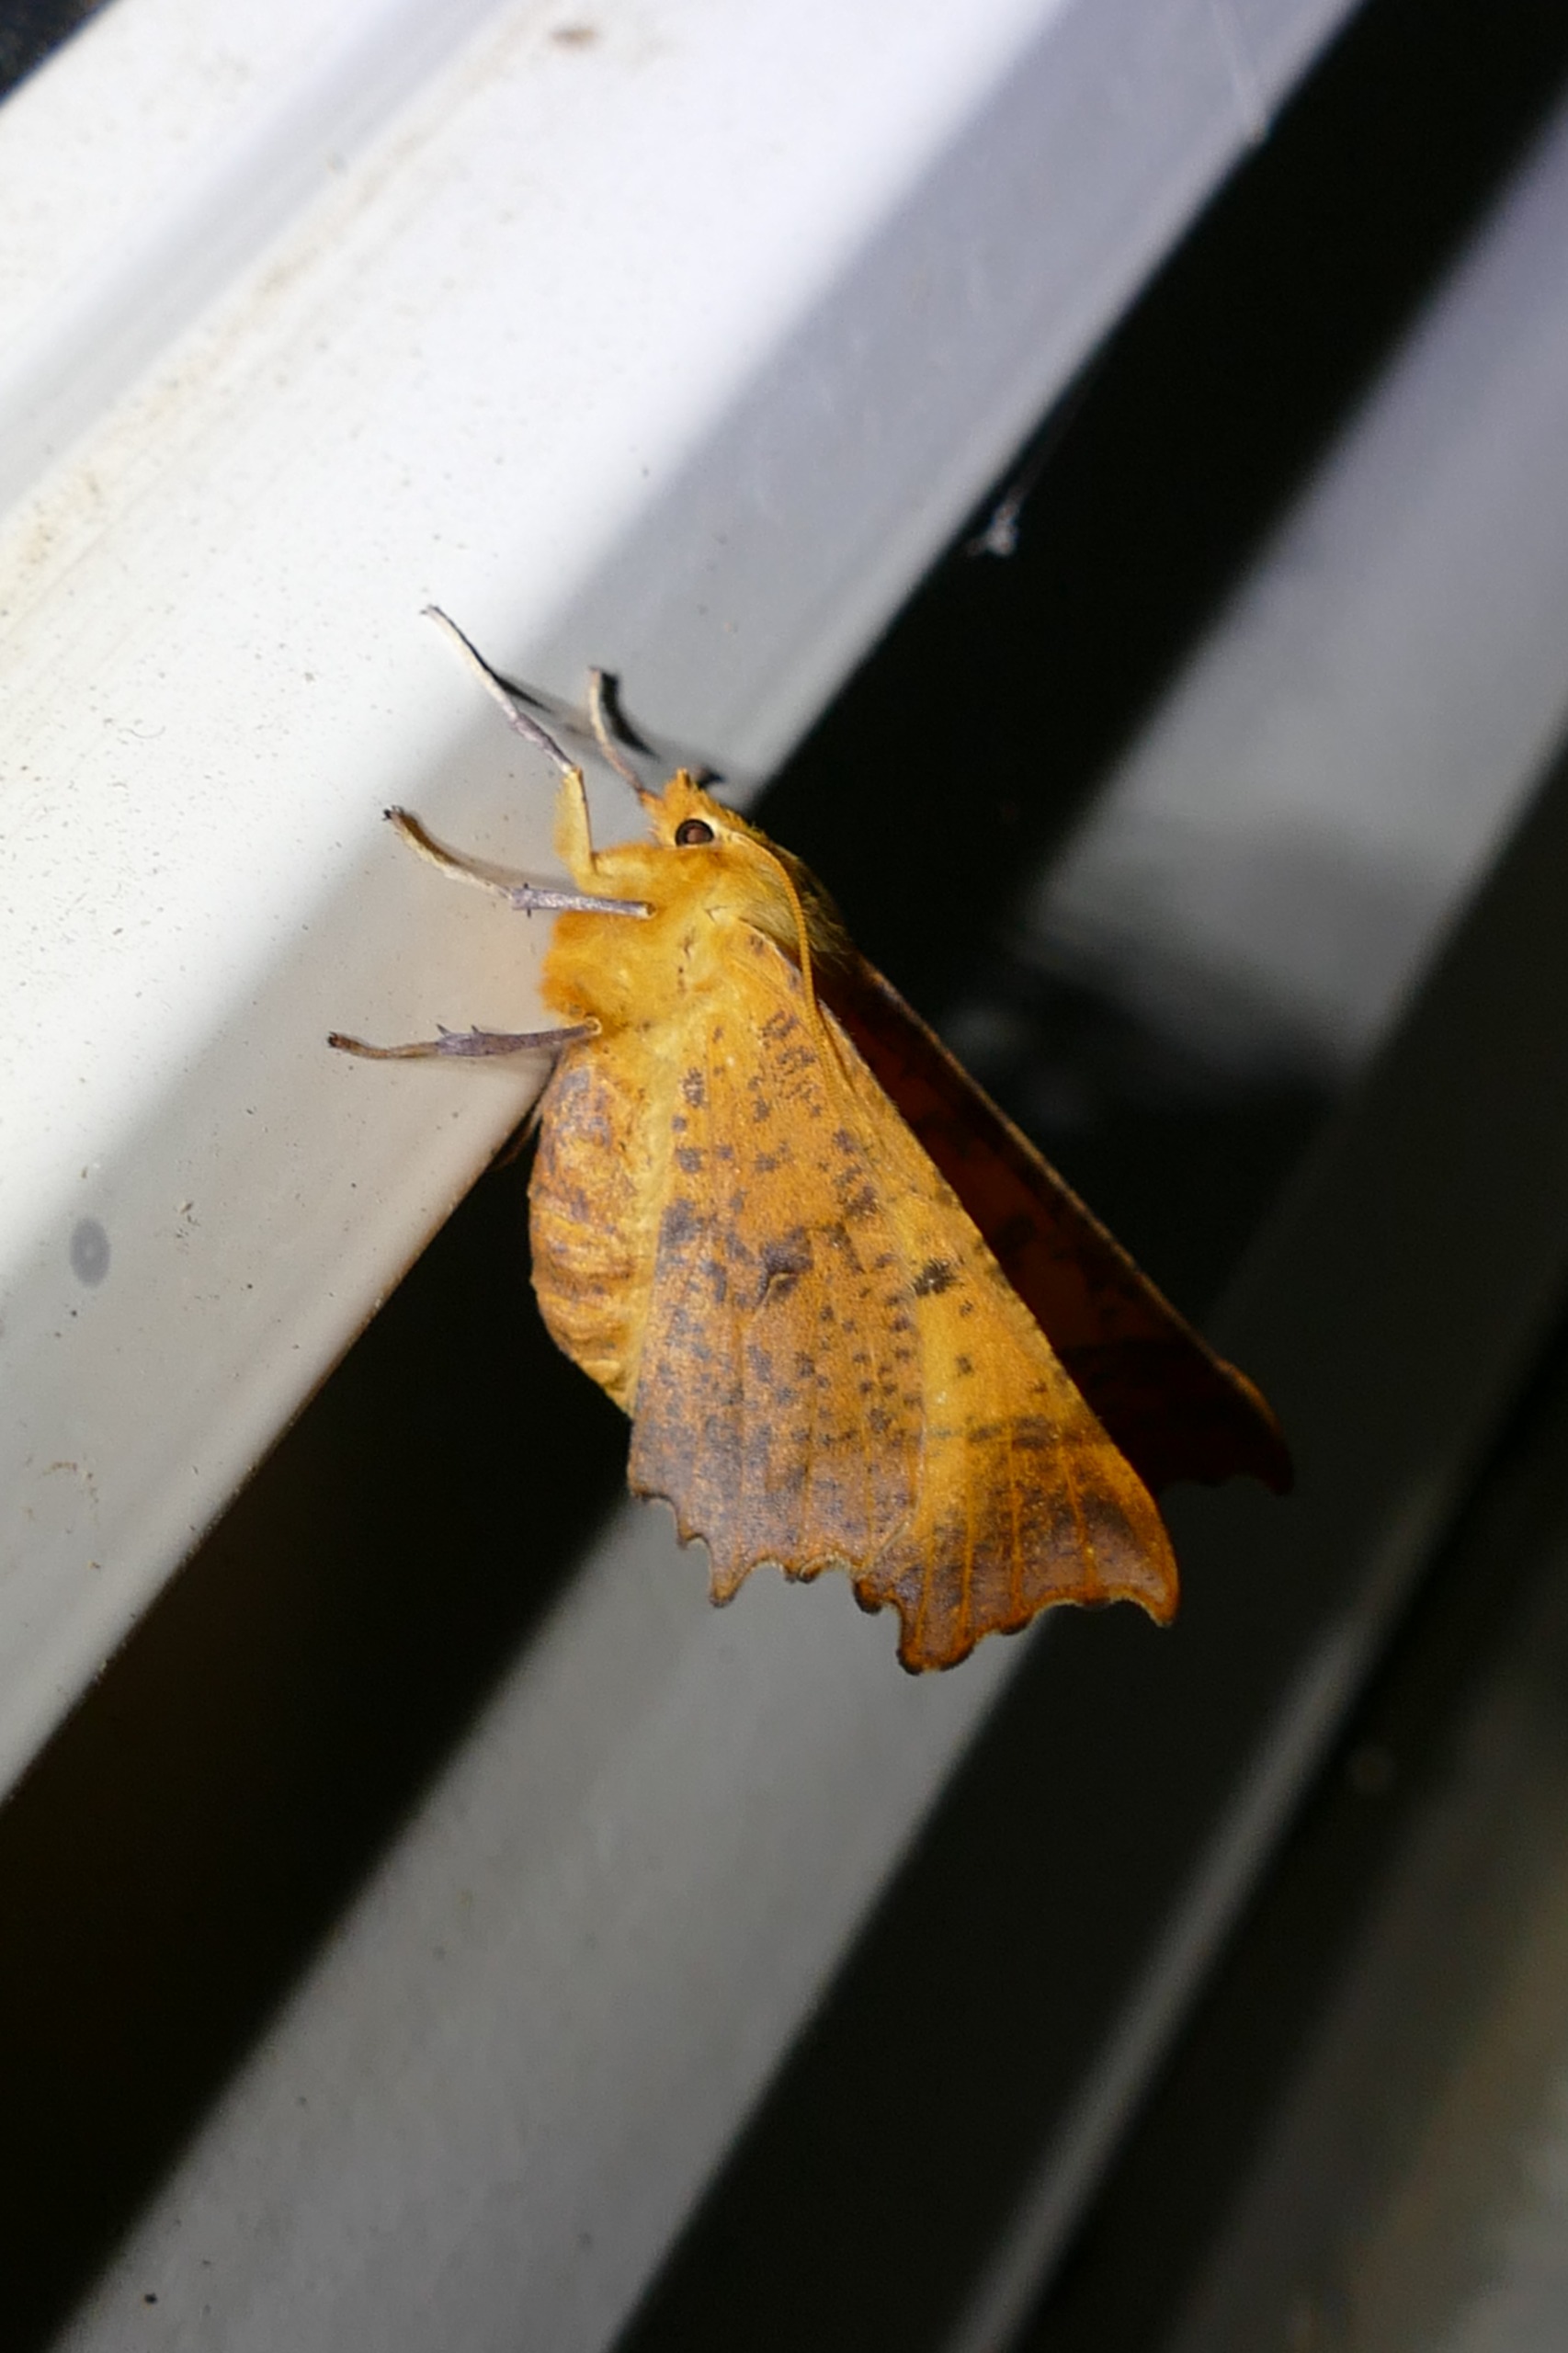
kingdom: Animalia
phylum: Arthropoda
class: Insecta
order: Lepidoptera
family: Geometridae
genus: Ennomos
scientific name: Ennomos autumnaria
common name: Stor tandmåler
